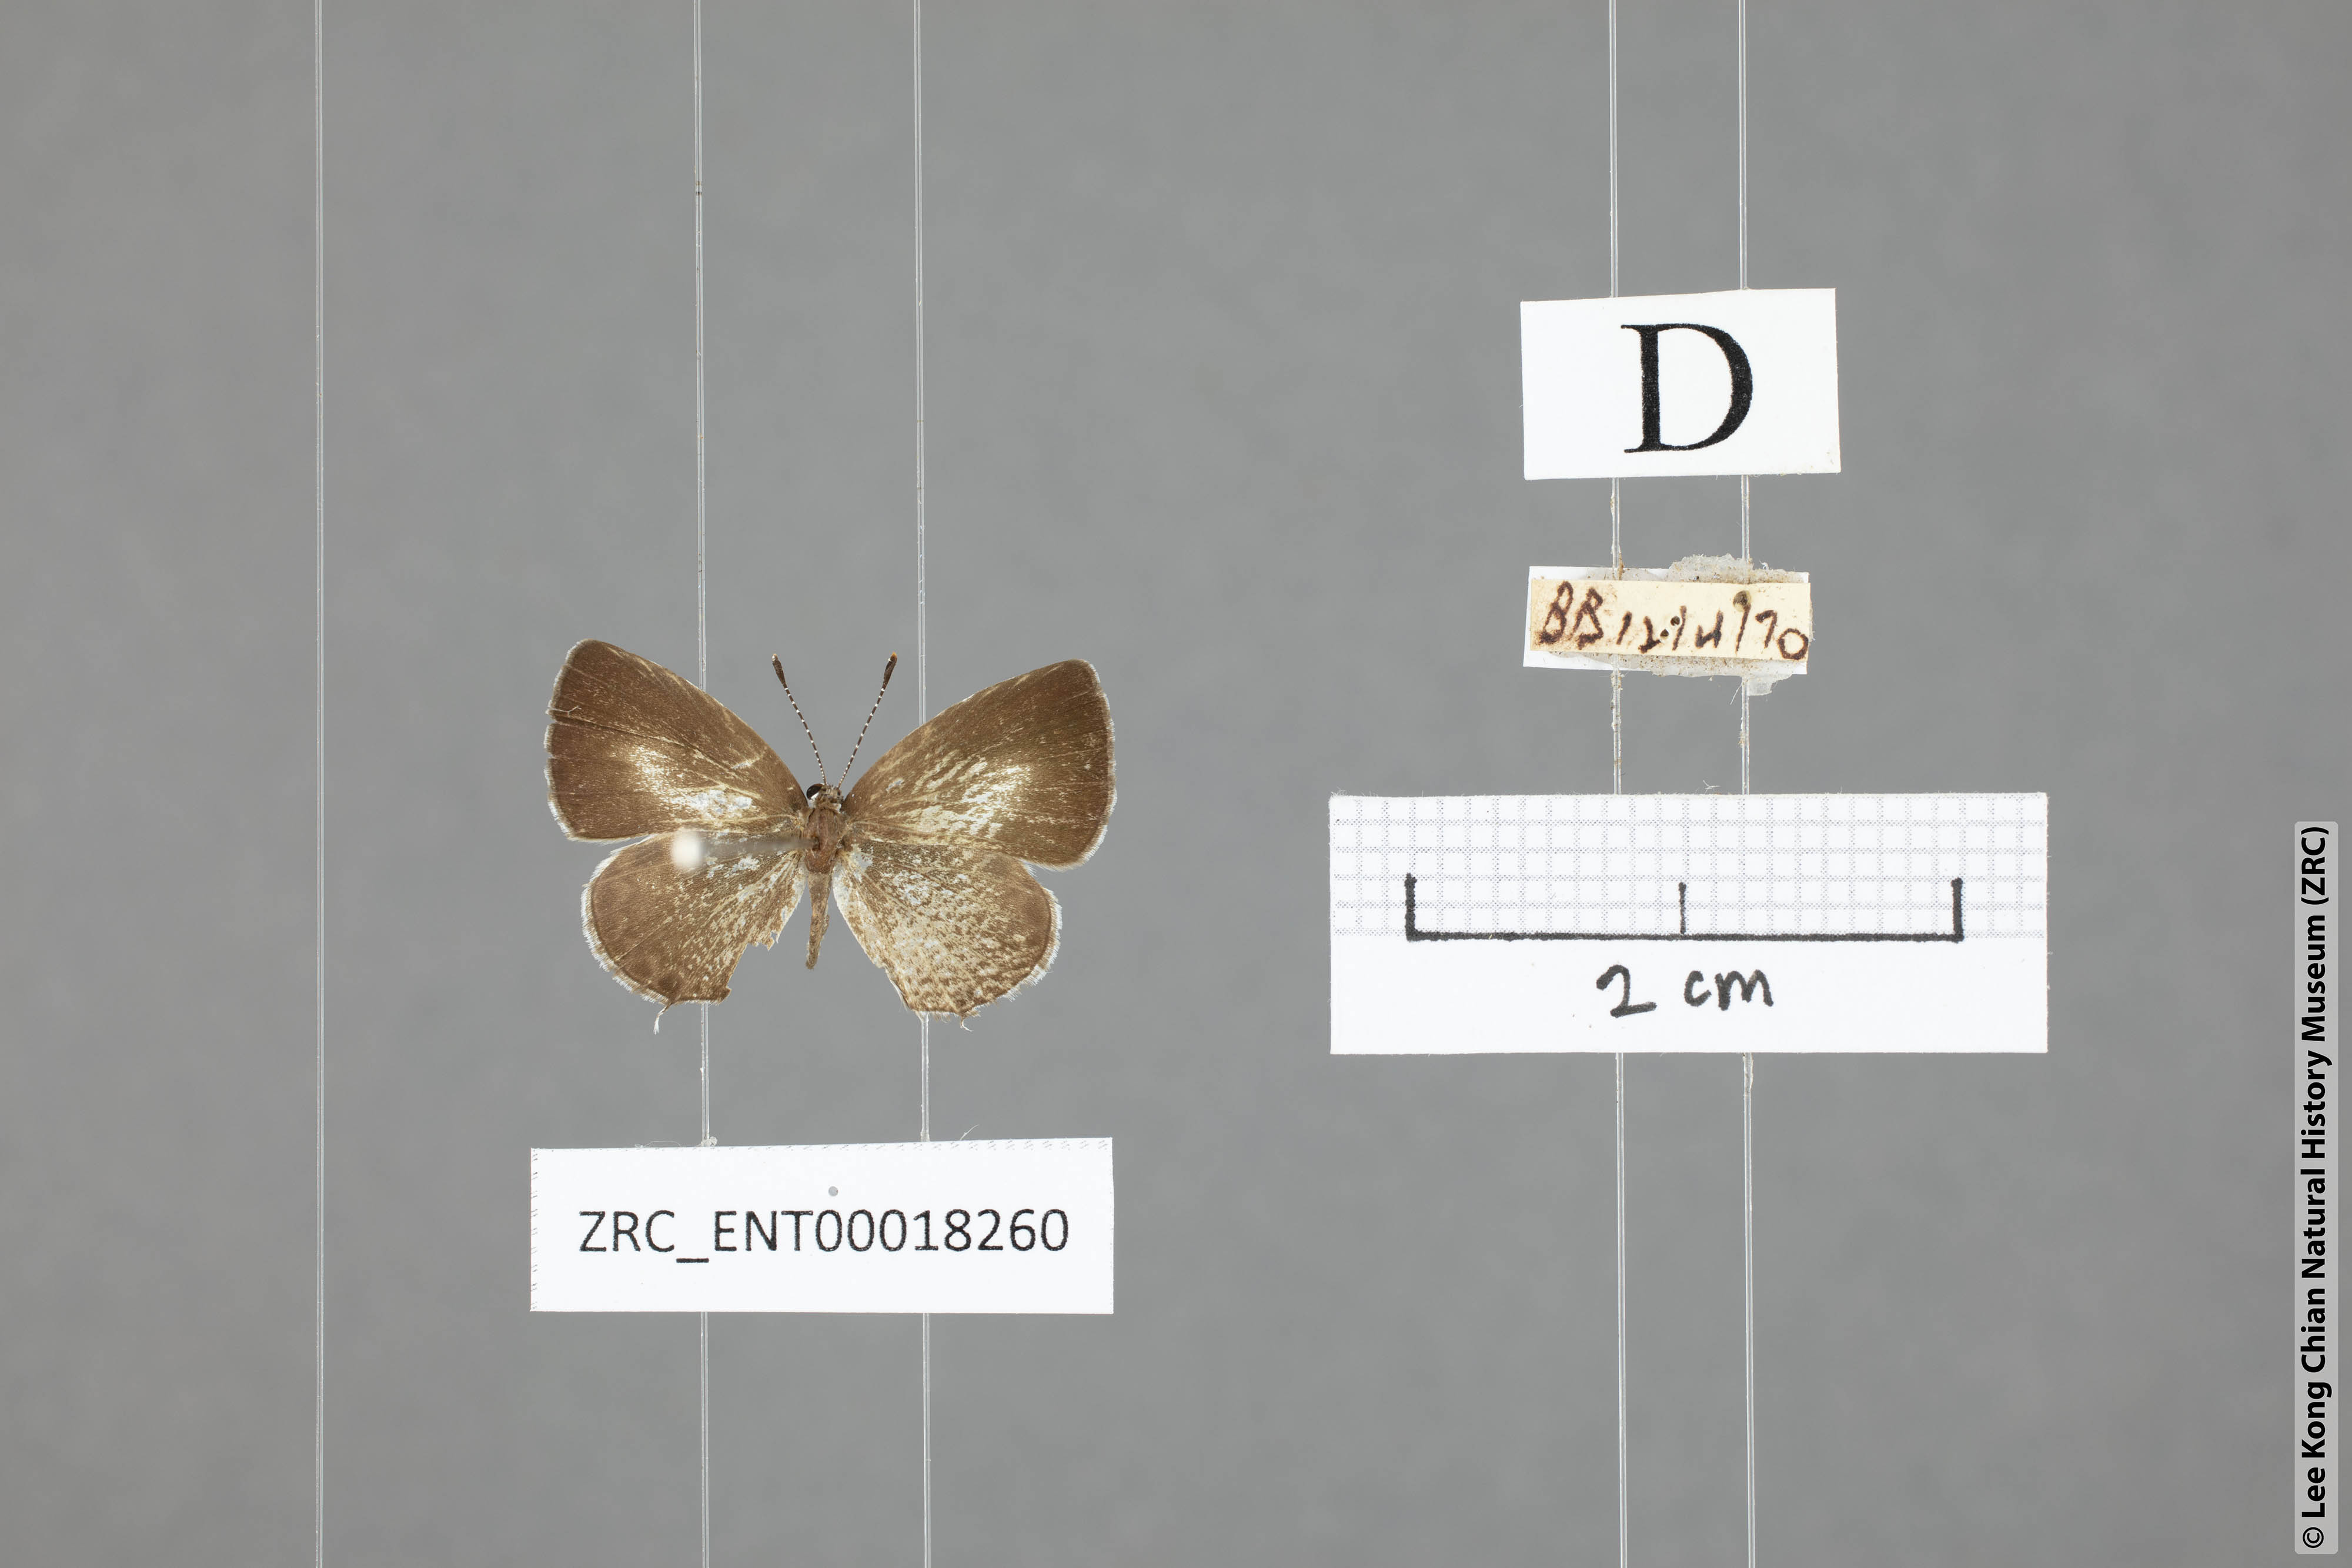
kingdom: Animalia
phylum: Arthropoda
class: Insecta
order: Lepidoptera
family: Lycaenidae
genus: Megisba
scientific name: Megisba malaya
